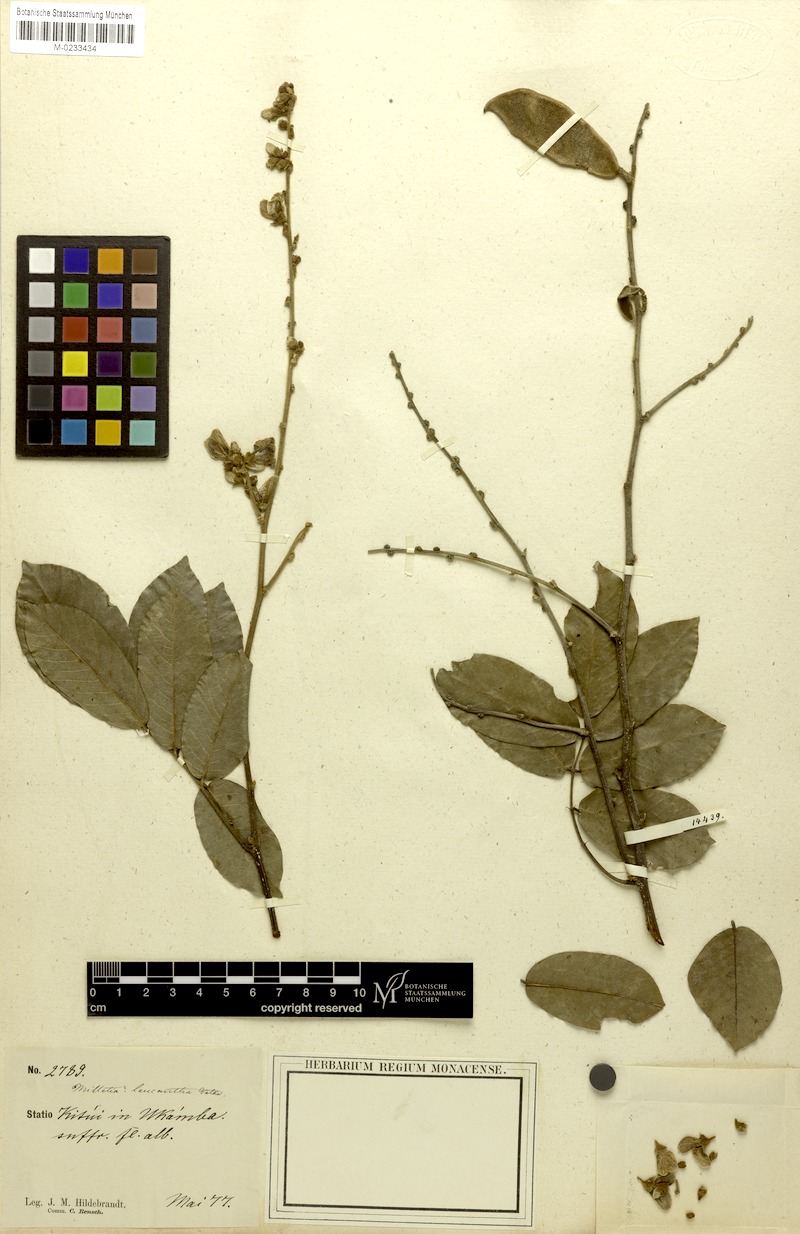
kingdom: Plantae
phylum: Tracheophyta
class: Magnoliopsida
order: Fabales
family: Fabaceae
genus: Millettia
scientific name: Millettia vatkei
